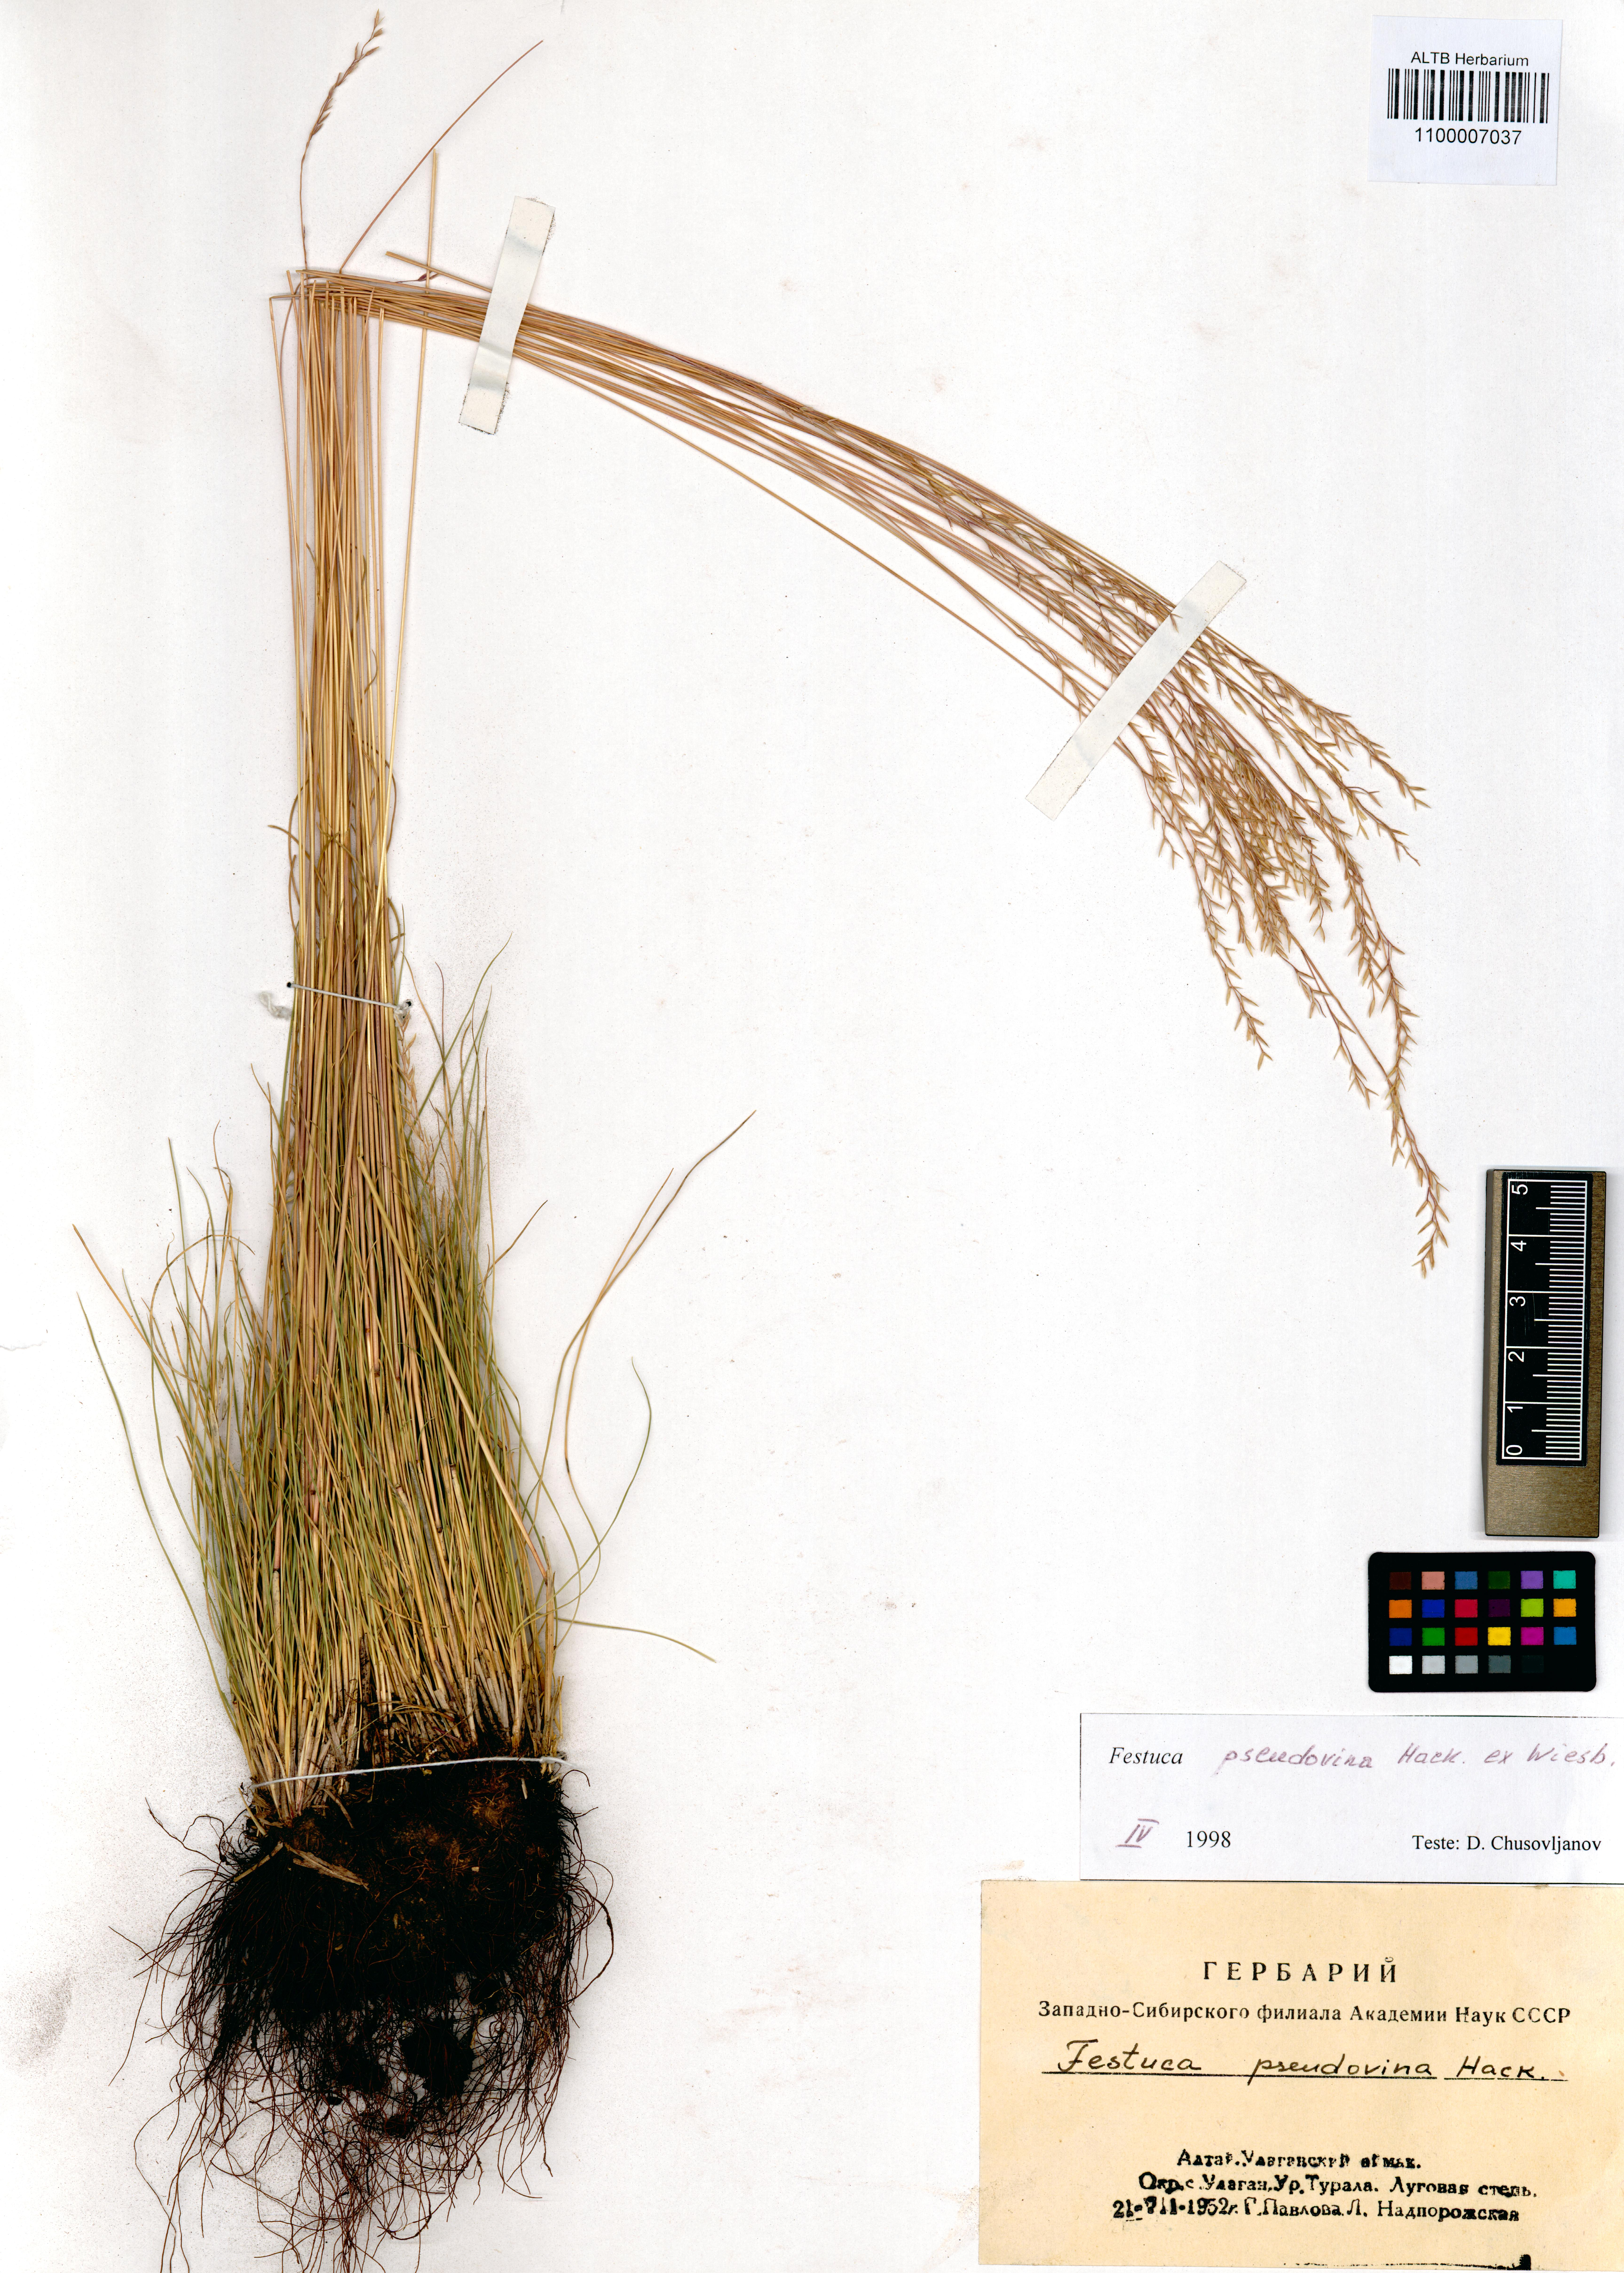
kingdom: Plantae
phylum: Tracheophyta
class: Liliopsida
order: Poales
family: Poaceae
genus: Festuca
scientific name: Festuca pulchra
